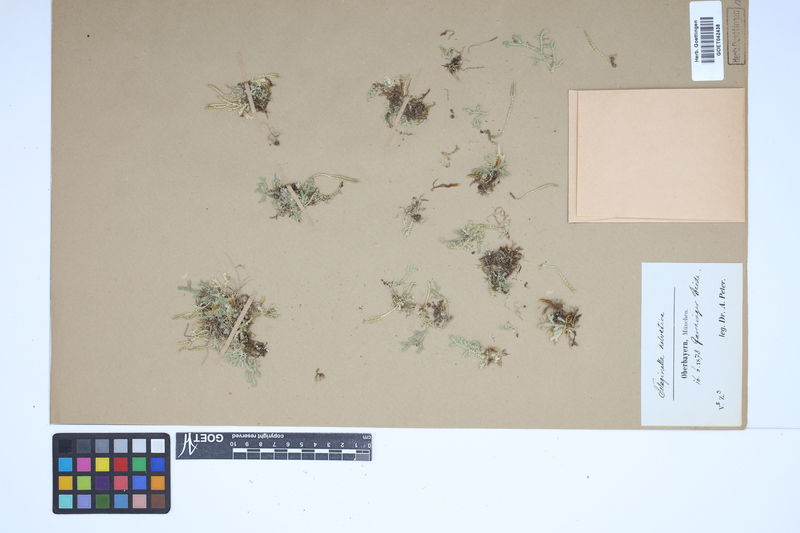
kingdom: Plantae
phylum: Tracheophyta
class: Lycopodiopsida
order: Selaginellales
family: Selaginellaceae
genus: Selaginella
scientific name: Selaginella helvetica
